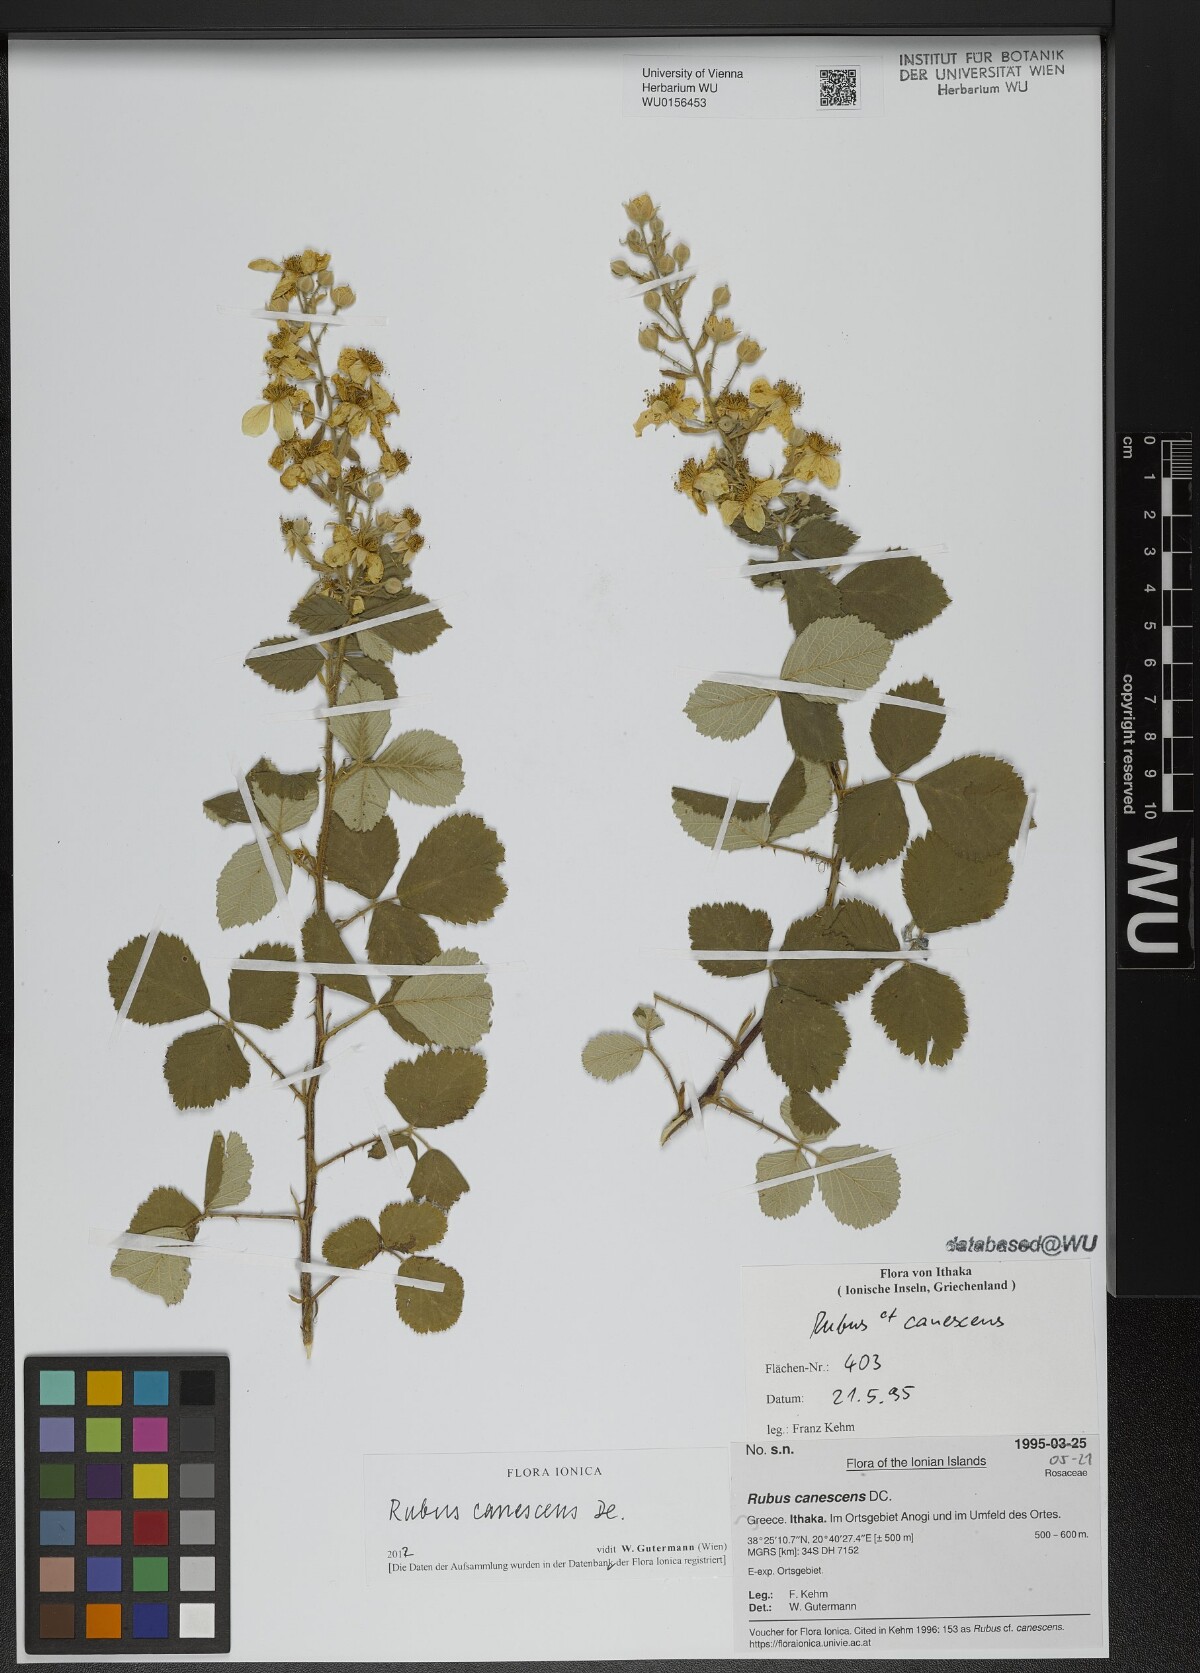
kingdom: Plantae
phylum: Tracheophyta
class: Magnoliopsida
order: Rosales
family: Rosaceae
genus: Rubus
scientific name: Rubus canescens
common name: Wooly blackberry
